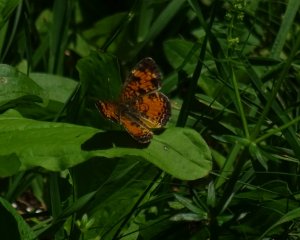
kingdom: Animalia
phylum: Arthropoda
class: Insecta
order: Lepidoptera
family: Nymphalidae
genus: Phyciodes
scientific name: Phyciodes tharos
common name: Northern Crescent
